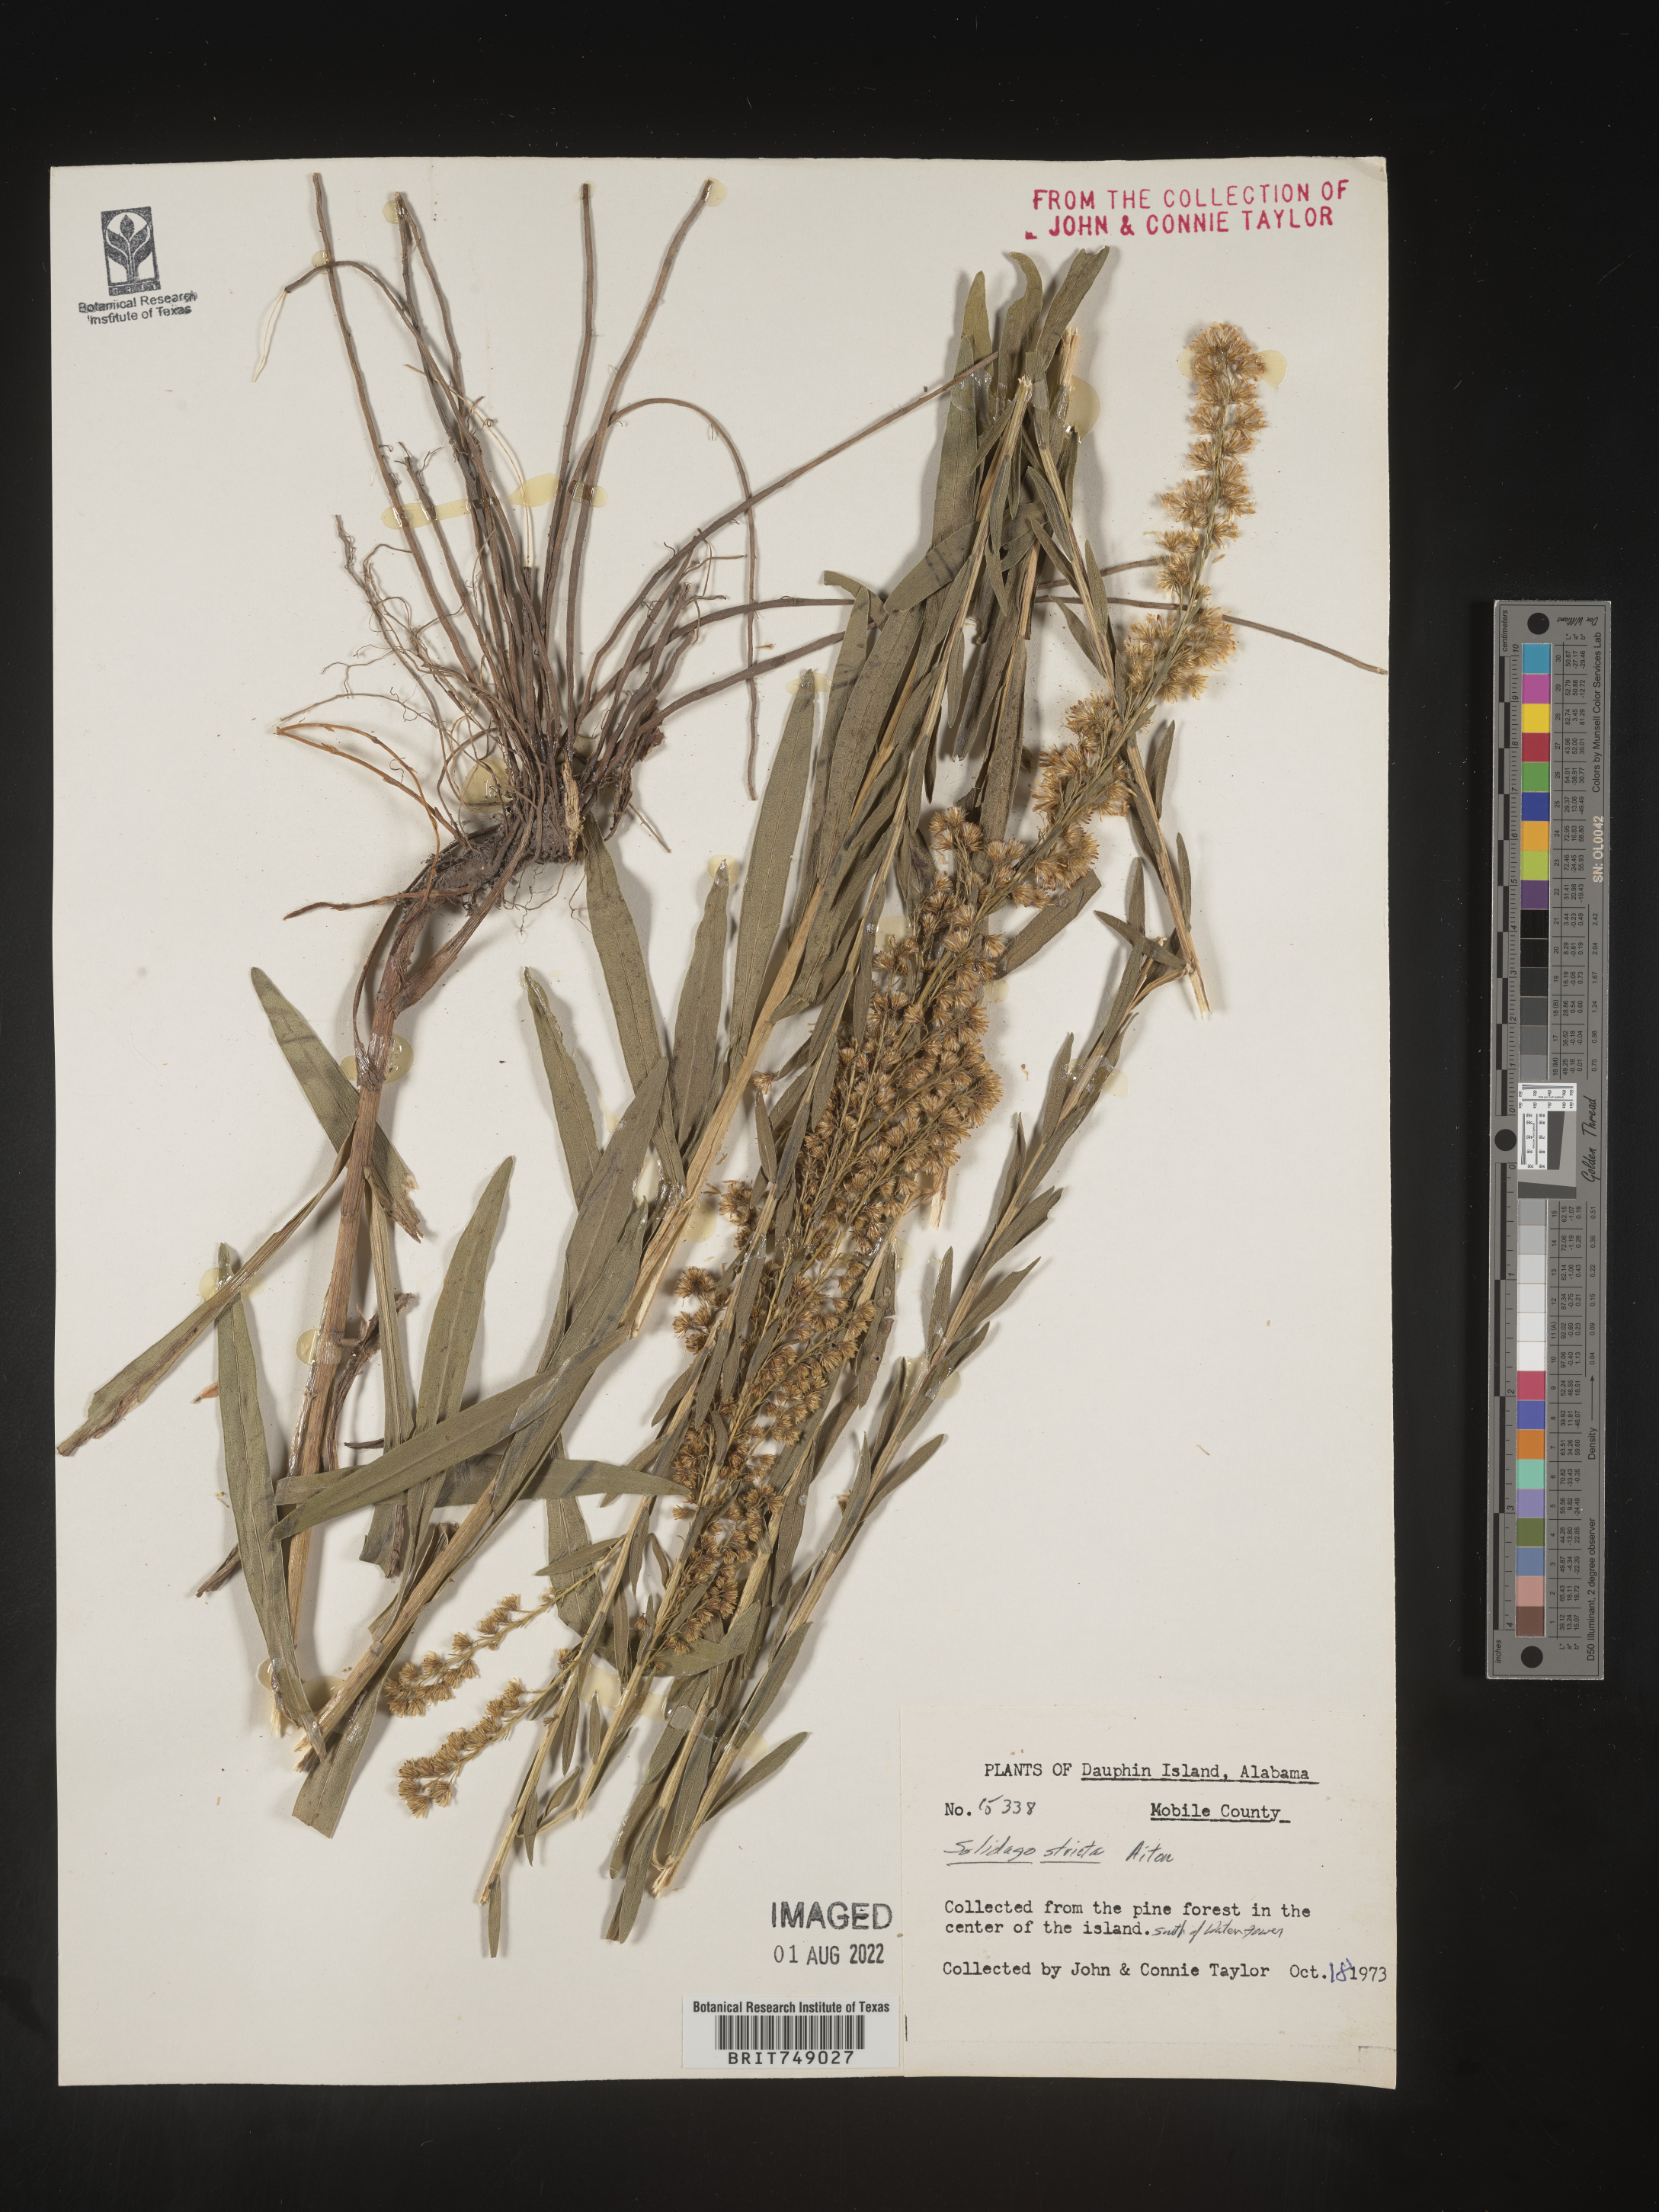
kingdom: Plantae
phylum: Tracheophyta
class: Magnoliopsida
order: Asterales
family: Asteraceae
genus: Solidago
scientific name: Solidago sempervirens
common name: Salt-marsh goldenrod
